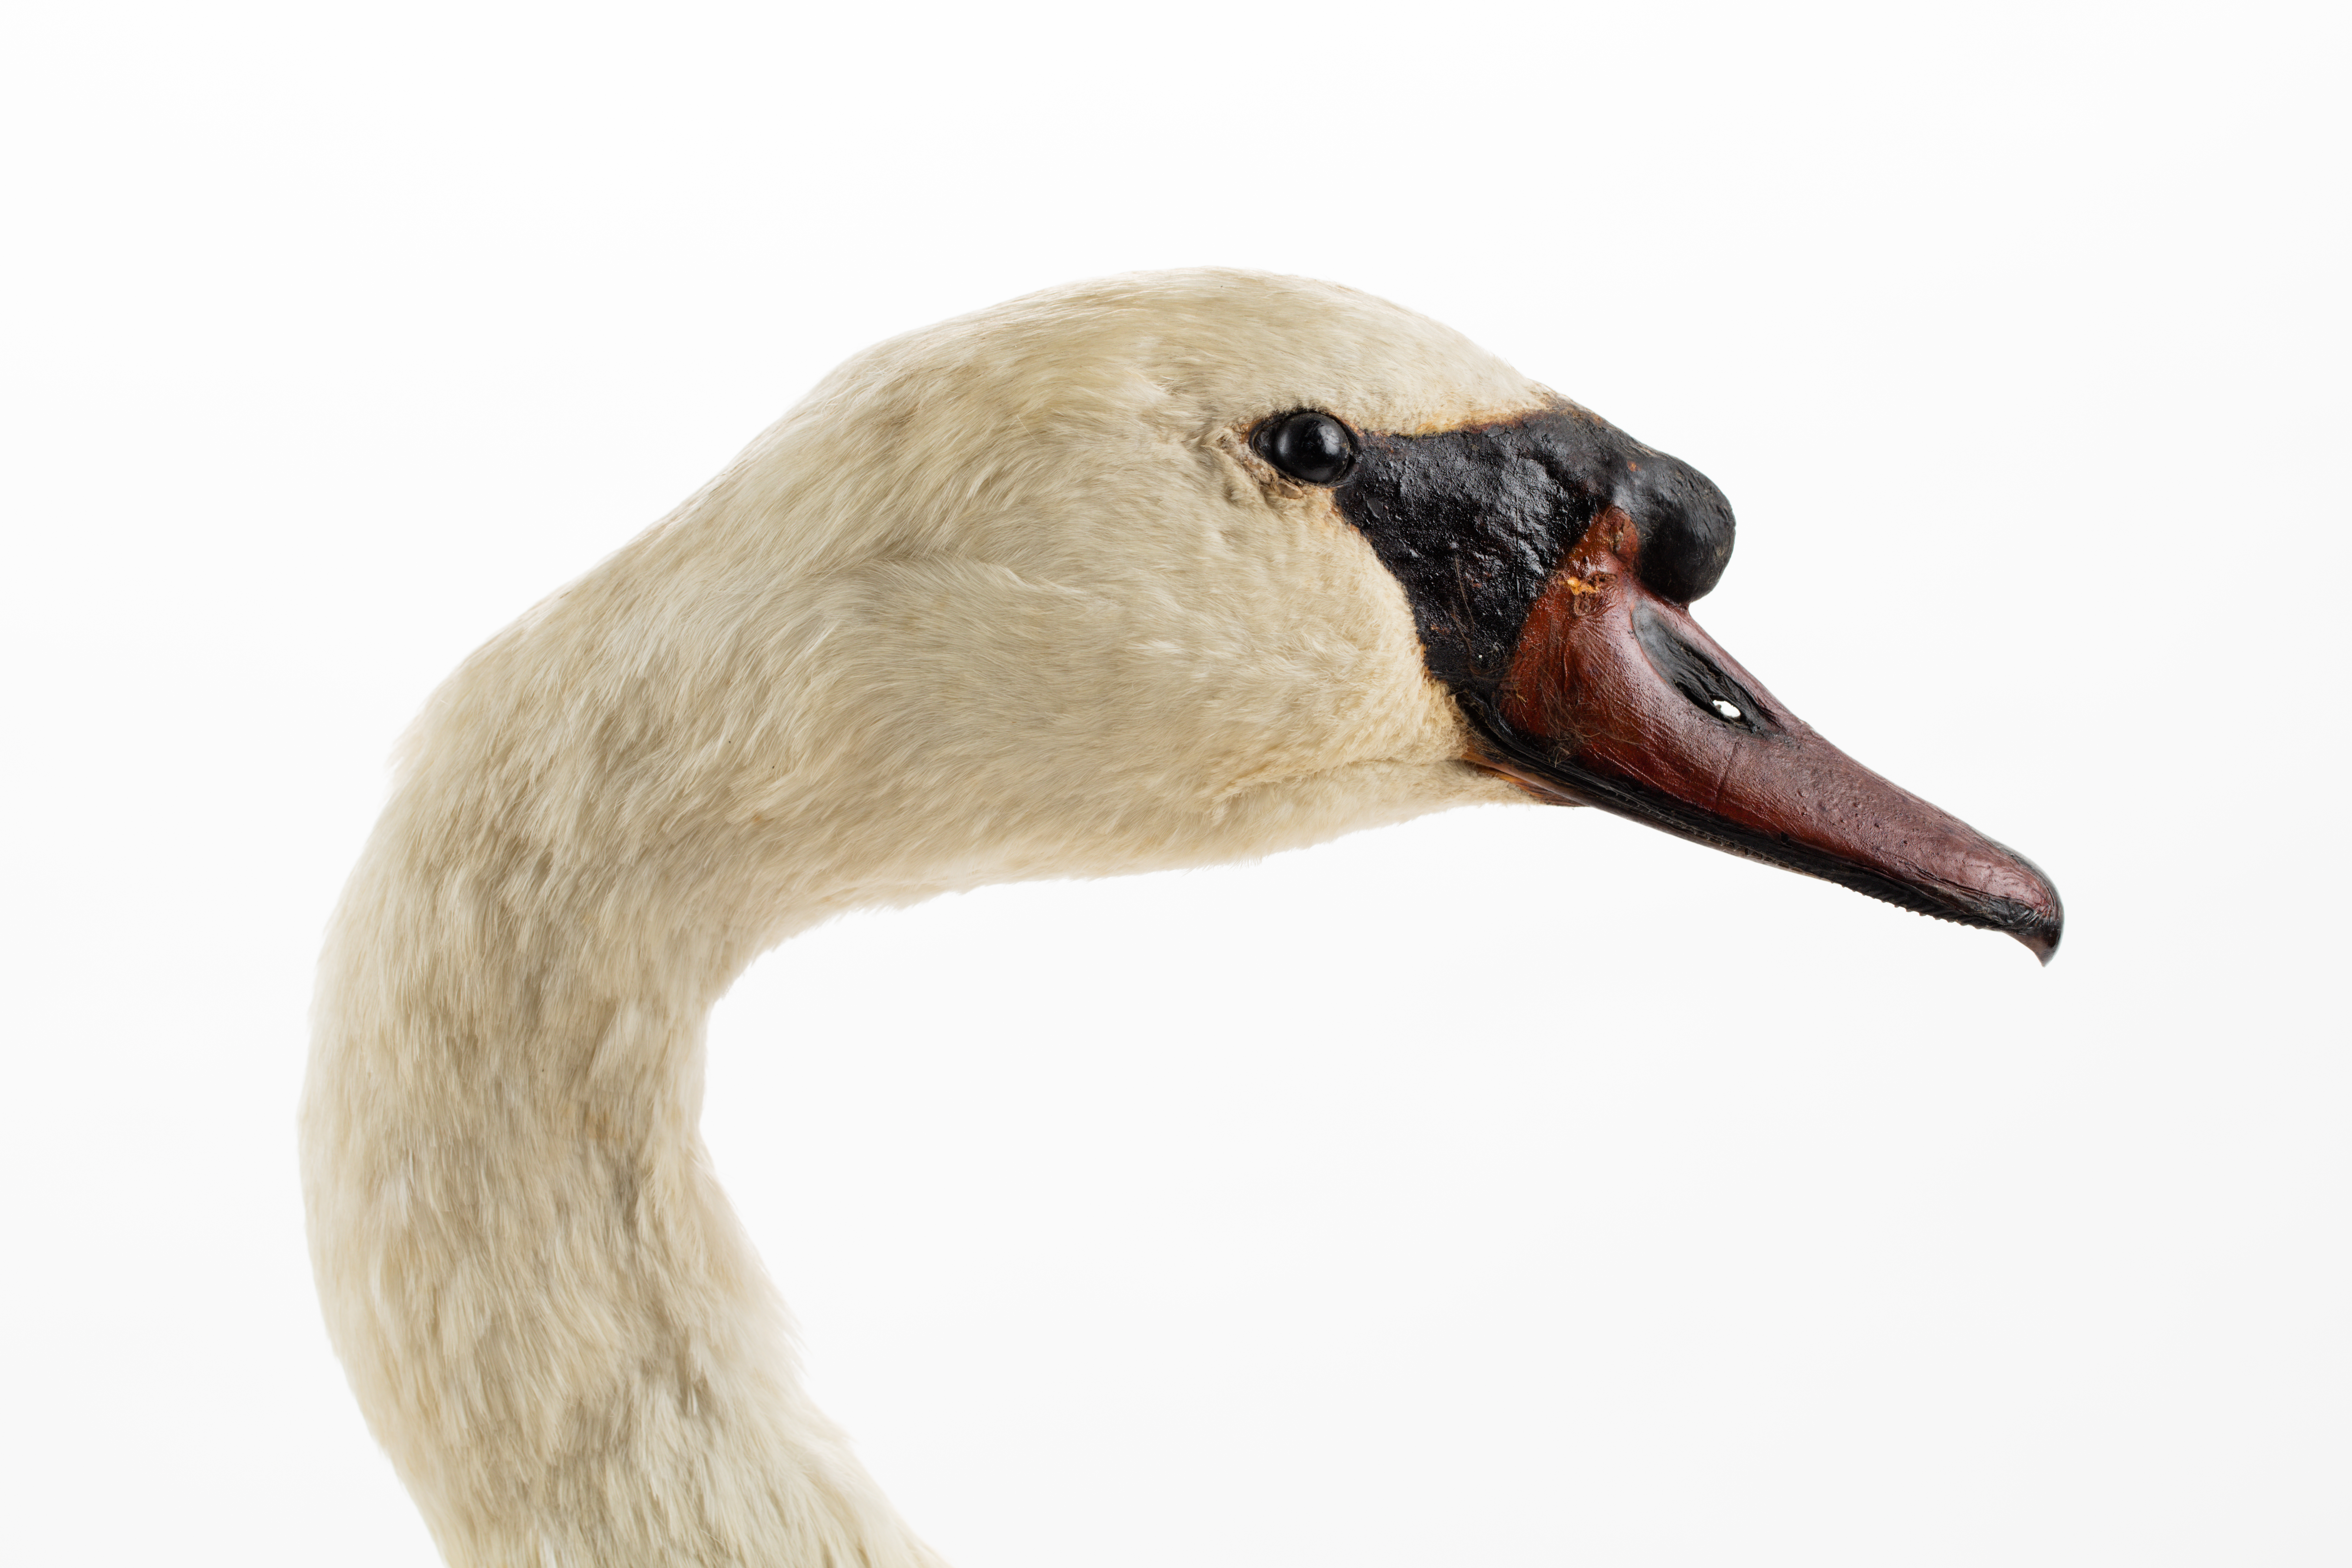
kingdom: Animalia
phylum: Chordata
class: Aves
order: Anseriformes
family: Anatidae
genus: Cygnus
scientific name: Cygnus olor
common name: Mute swan
